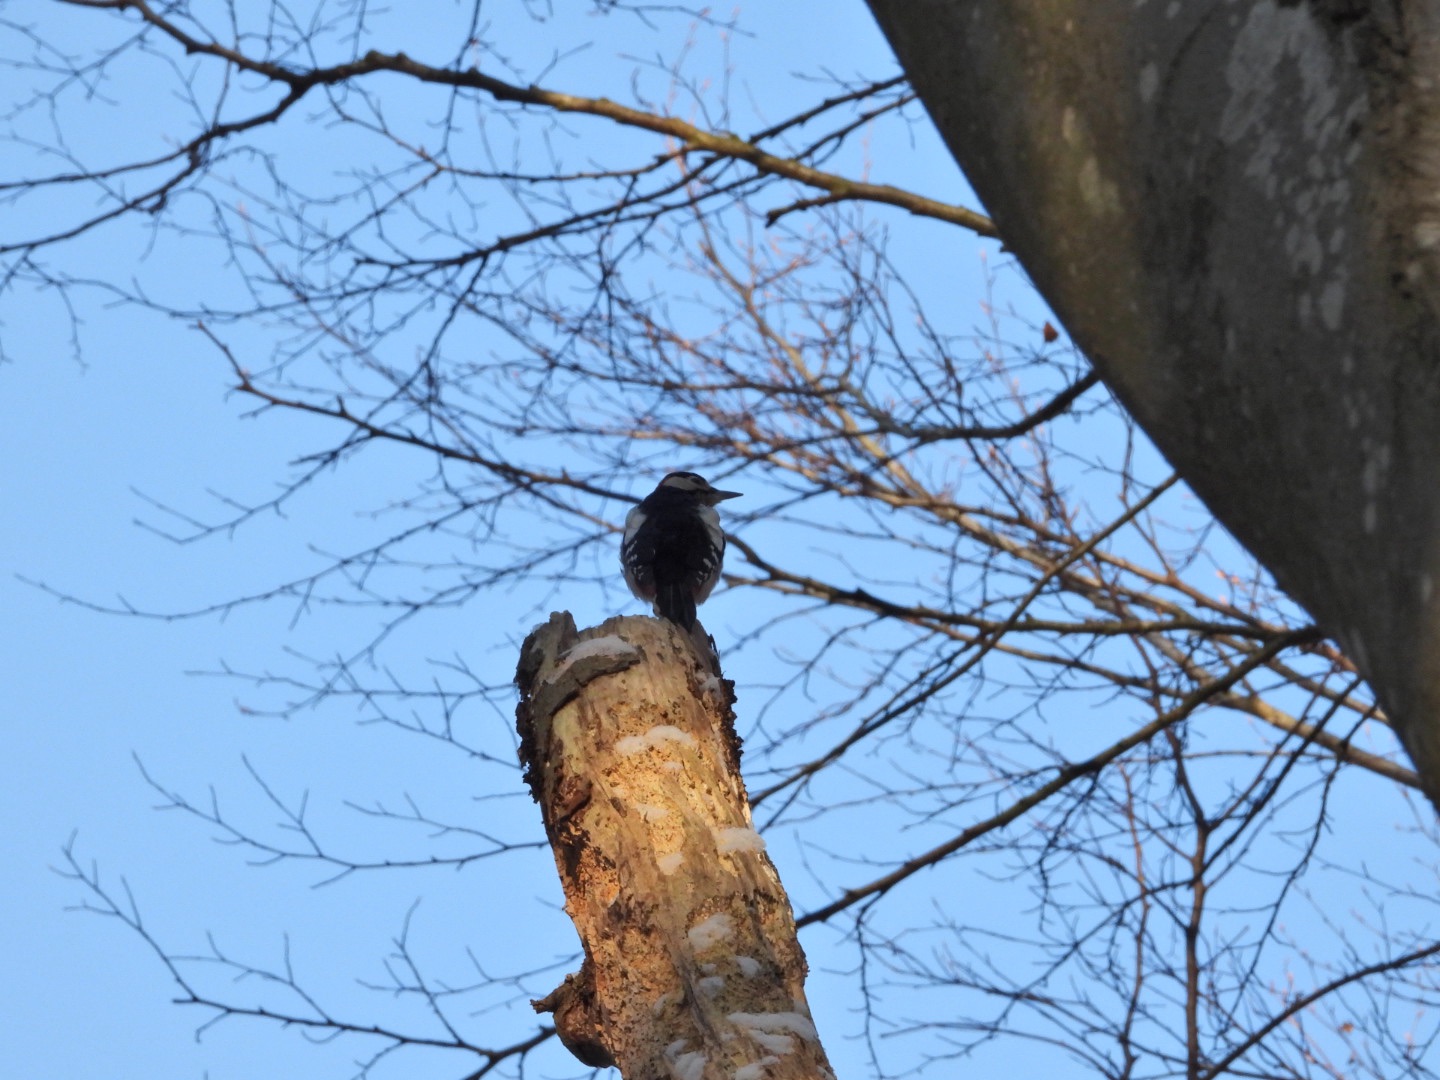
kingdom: Animalia
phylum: Chordata
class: Aves
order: Piciformes
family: Picidae
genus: Dendrocopos
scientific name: Dendrocopos major
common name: Stor flagspætte
